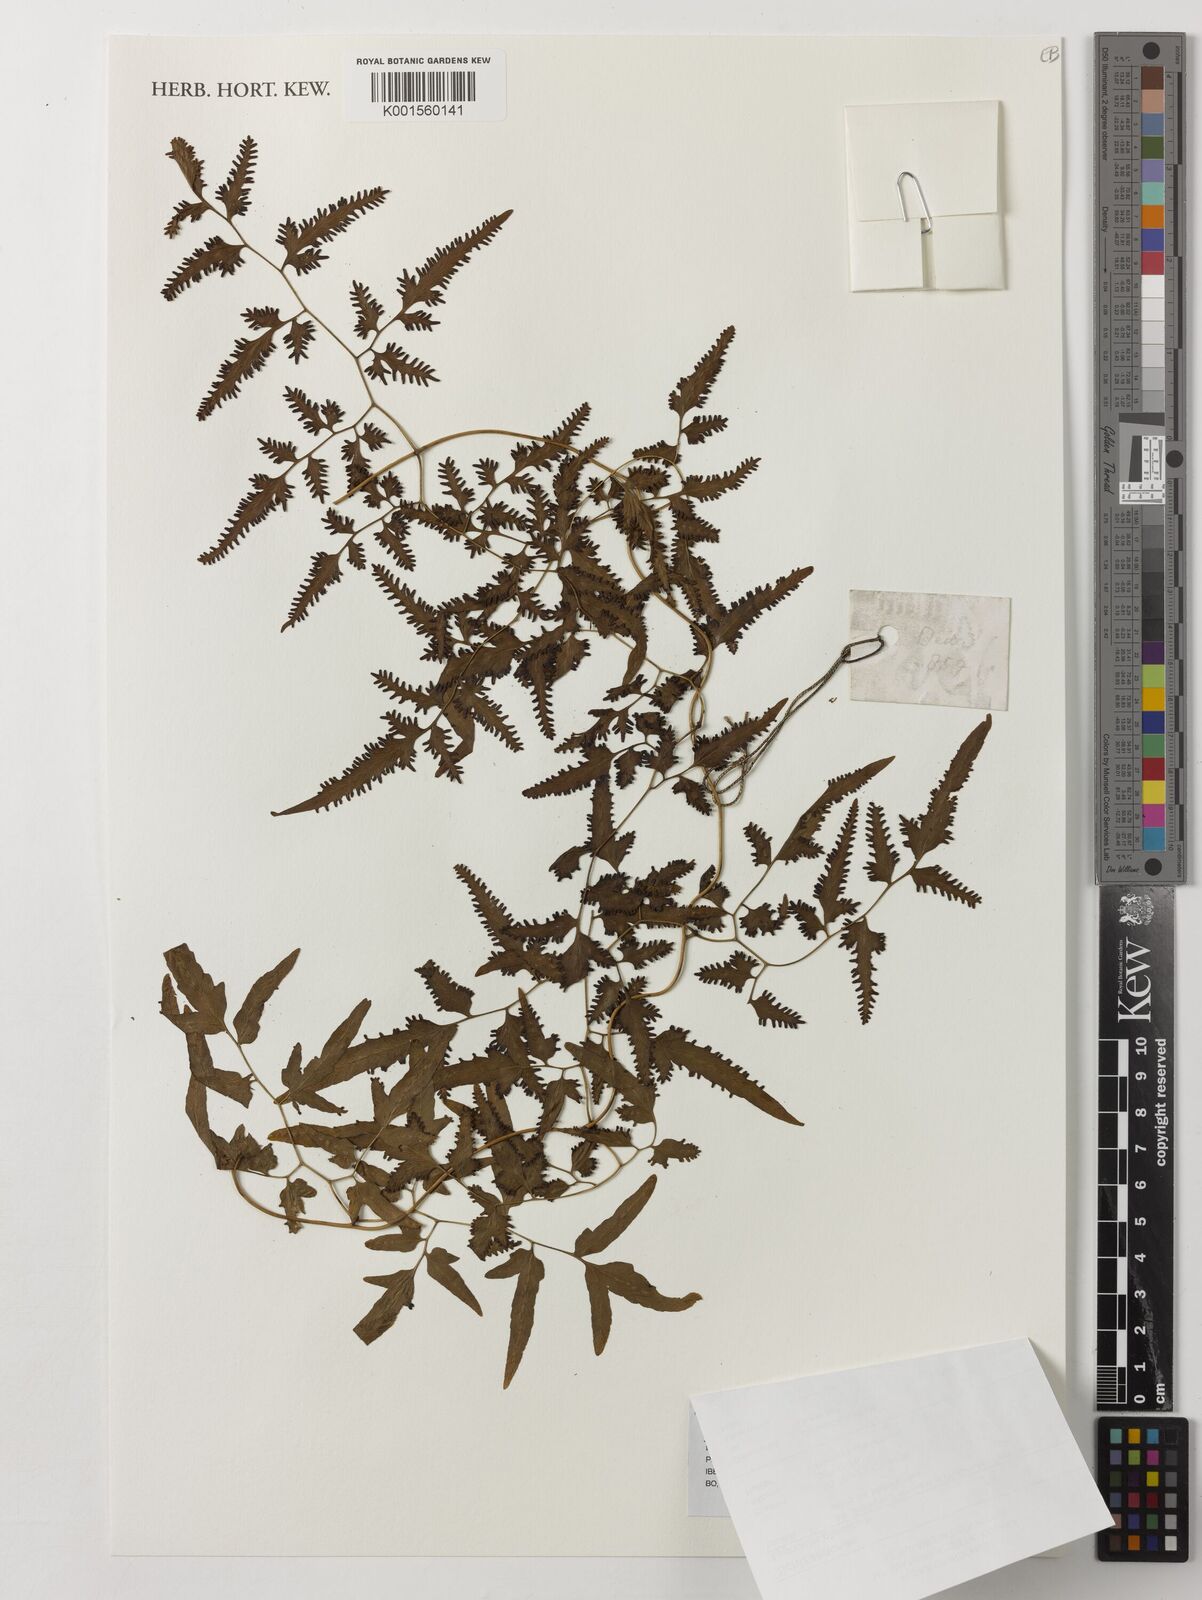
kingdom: Plantae
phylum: Tracheophyta
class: Polypodiopsida
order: Schizaeales
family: Lygodiaceae
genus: Lygodium
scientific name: Lygodium palmatum
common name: American climbing fern
